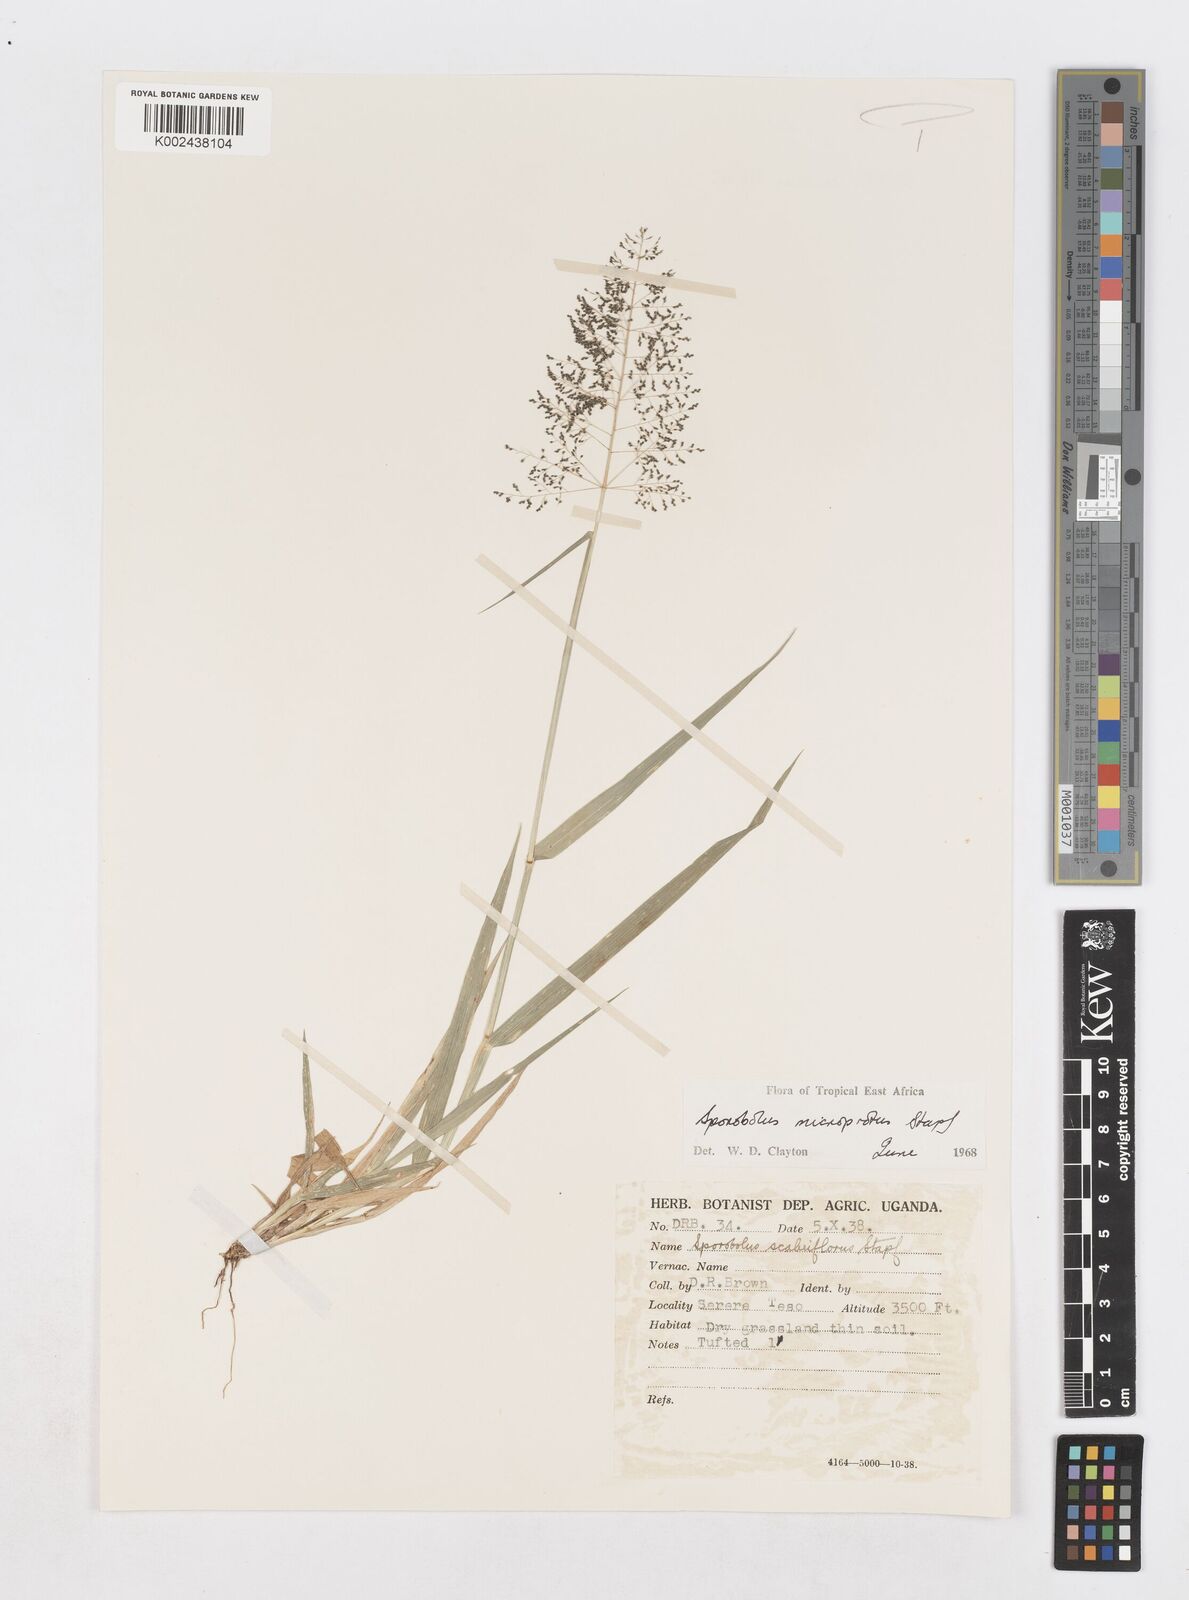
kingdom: Plantae
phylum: Tracheophyta
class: Liliopsida
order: Poales
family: Poaceae
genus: Sporobolus
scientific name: Sporobolus microprotus
